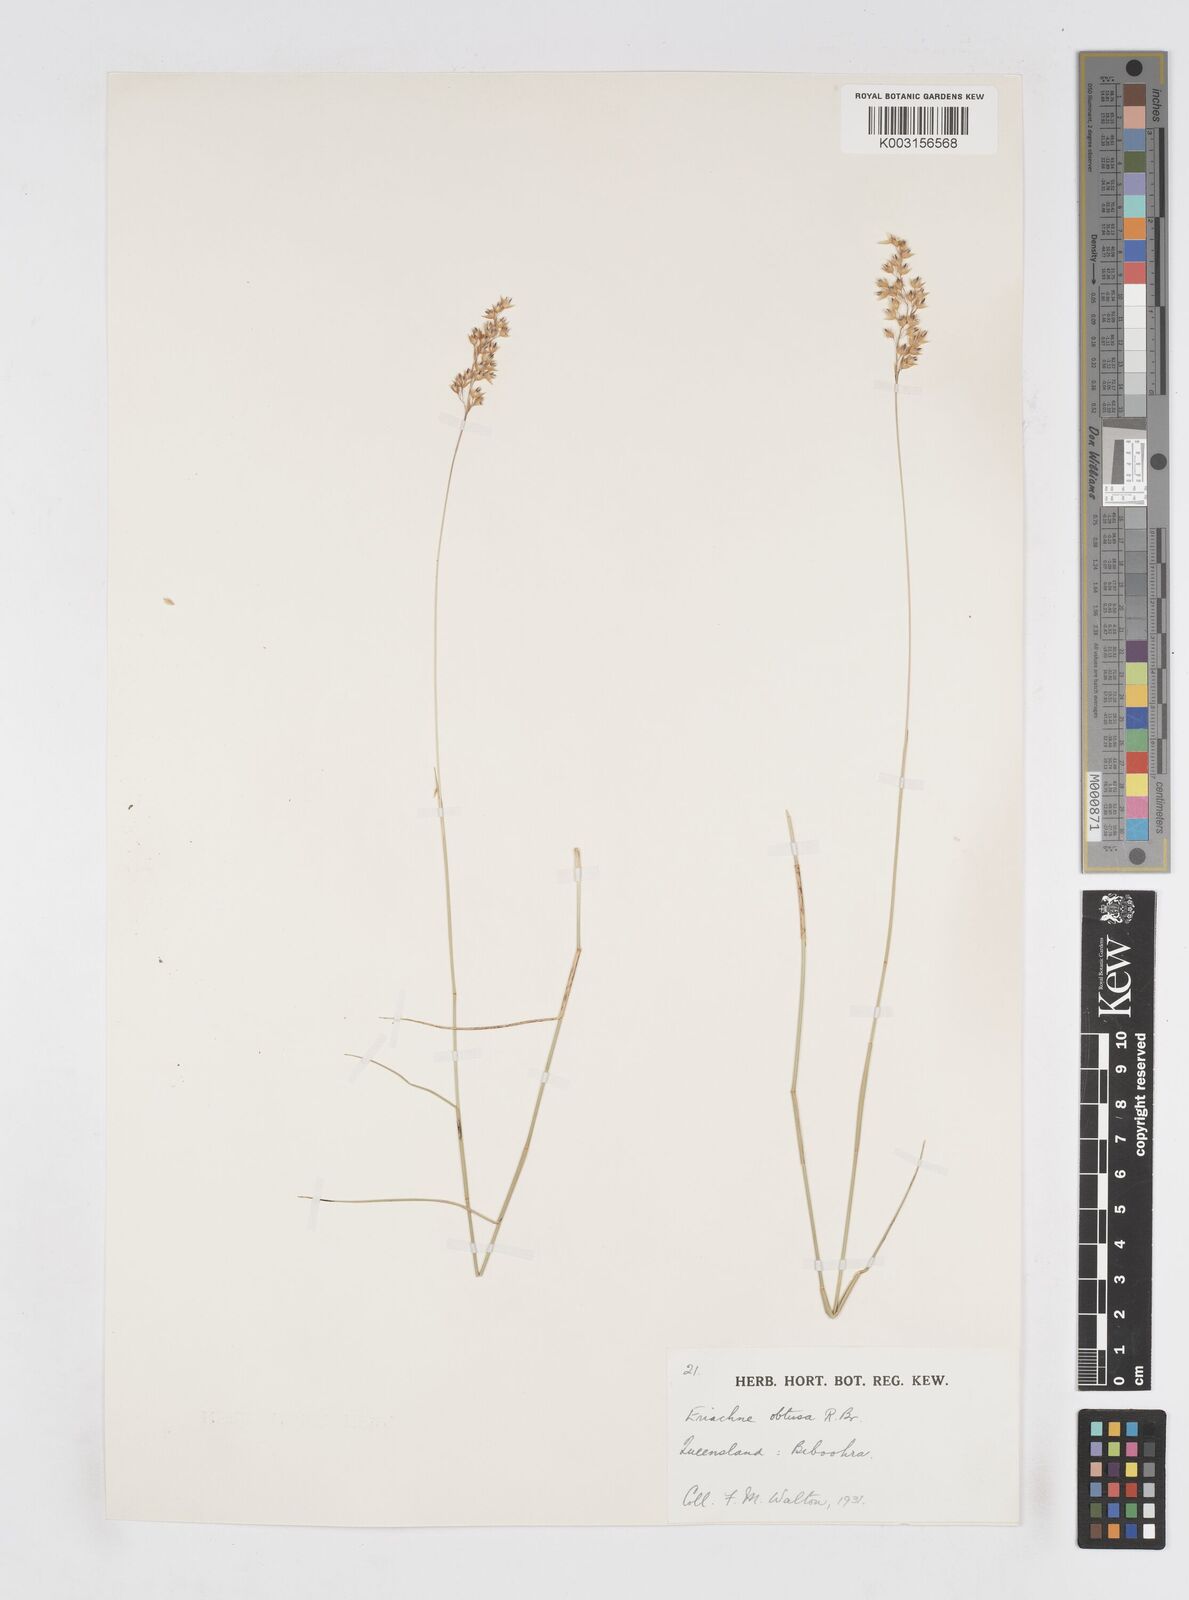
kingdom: Plantae
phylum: Tracheophyta
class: Liliopsida
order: Poales
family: Poaceae
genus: Eriachne
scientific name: Eriachne obtusa
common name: Northern wanderrie grass
